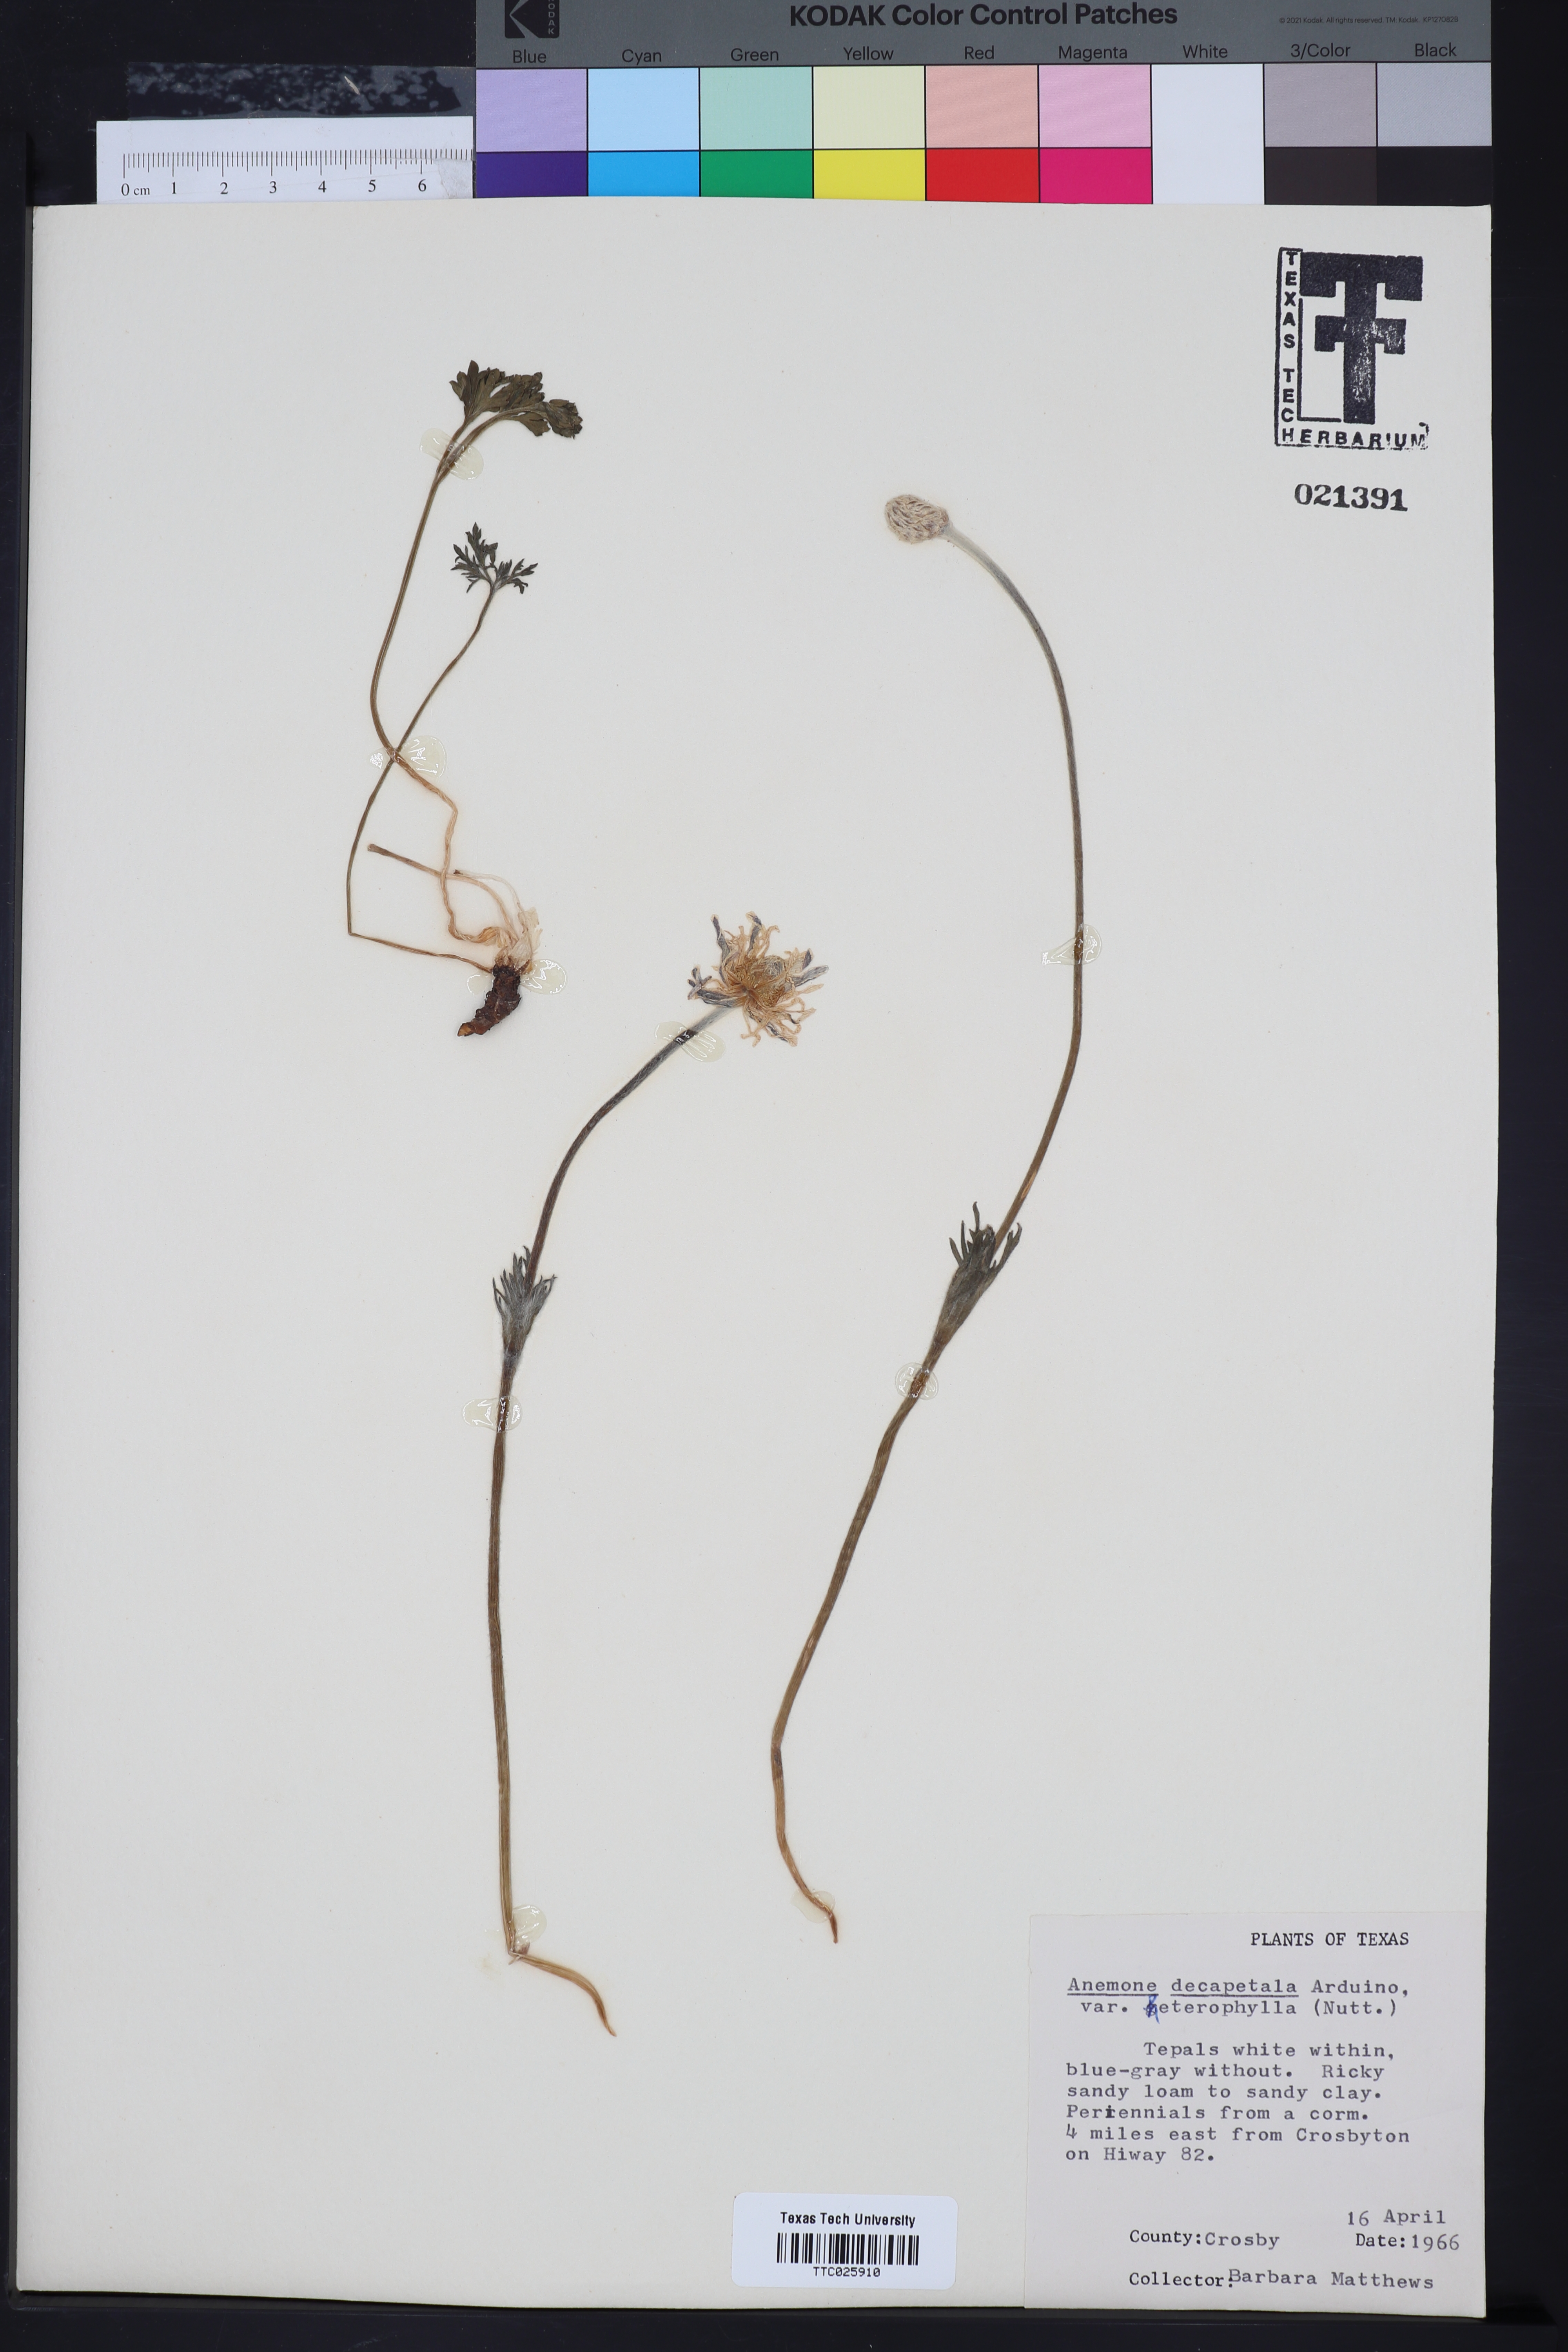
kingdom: Plantae
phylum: Tracheophyta
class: Magnoliopsida
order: Ranunculales
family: Ranunculaceae
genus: Anemone
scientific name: Anemone berlandieri
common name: Ten-petal anemone
